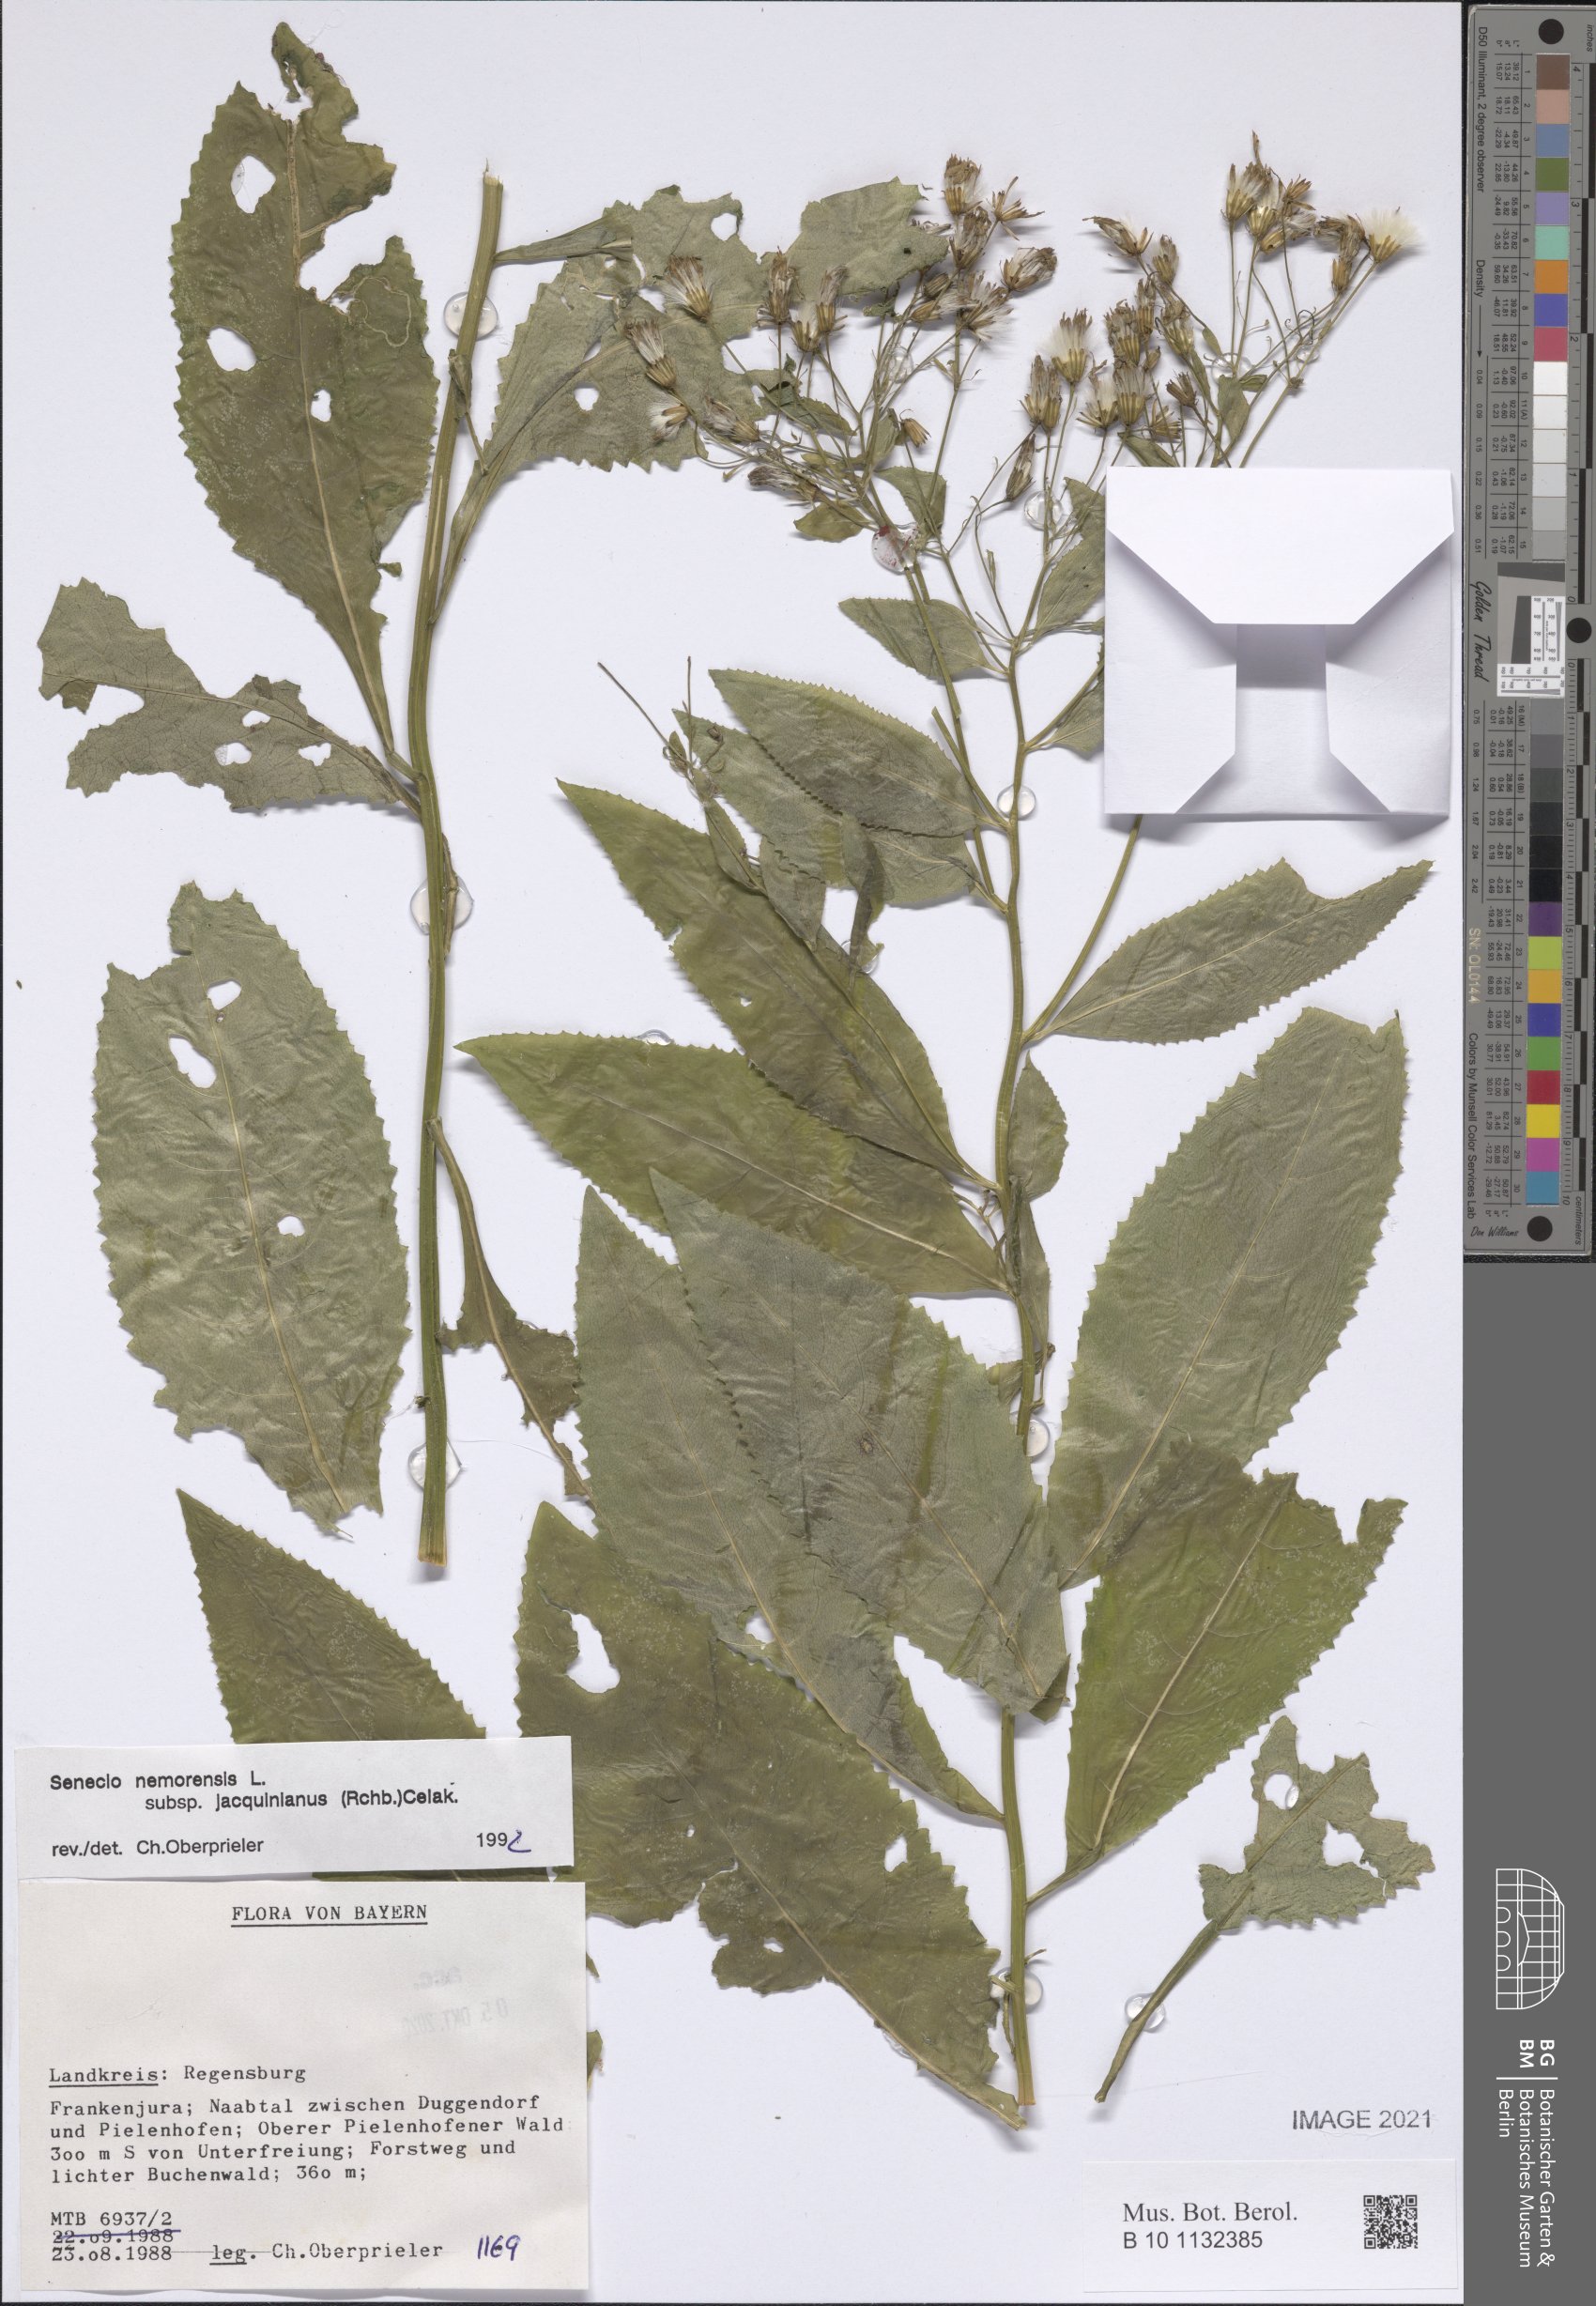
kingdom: Plantae
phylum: Tracheophyta
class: Magnoliopsida
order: Asterales
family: Asteraceae
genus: Senecio
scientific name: Senecio germanicus
